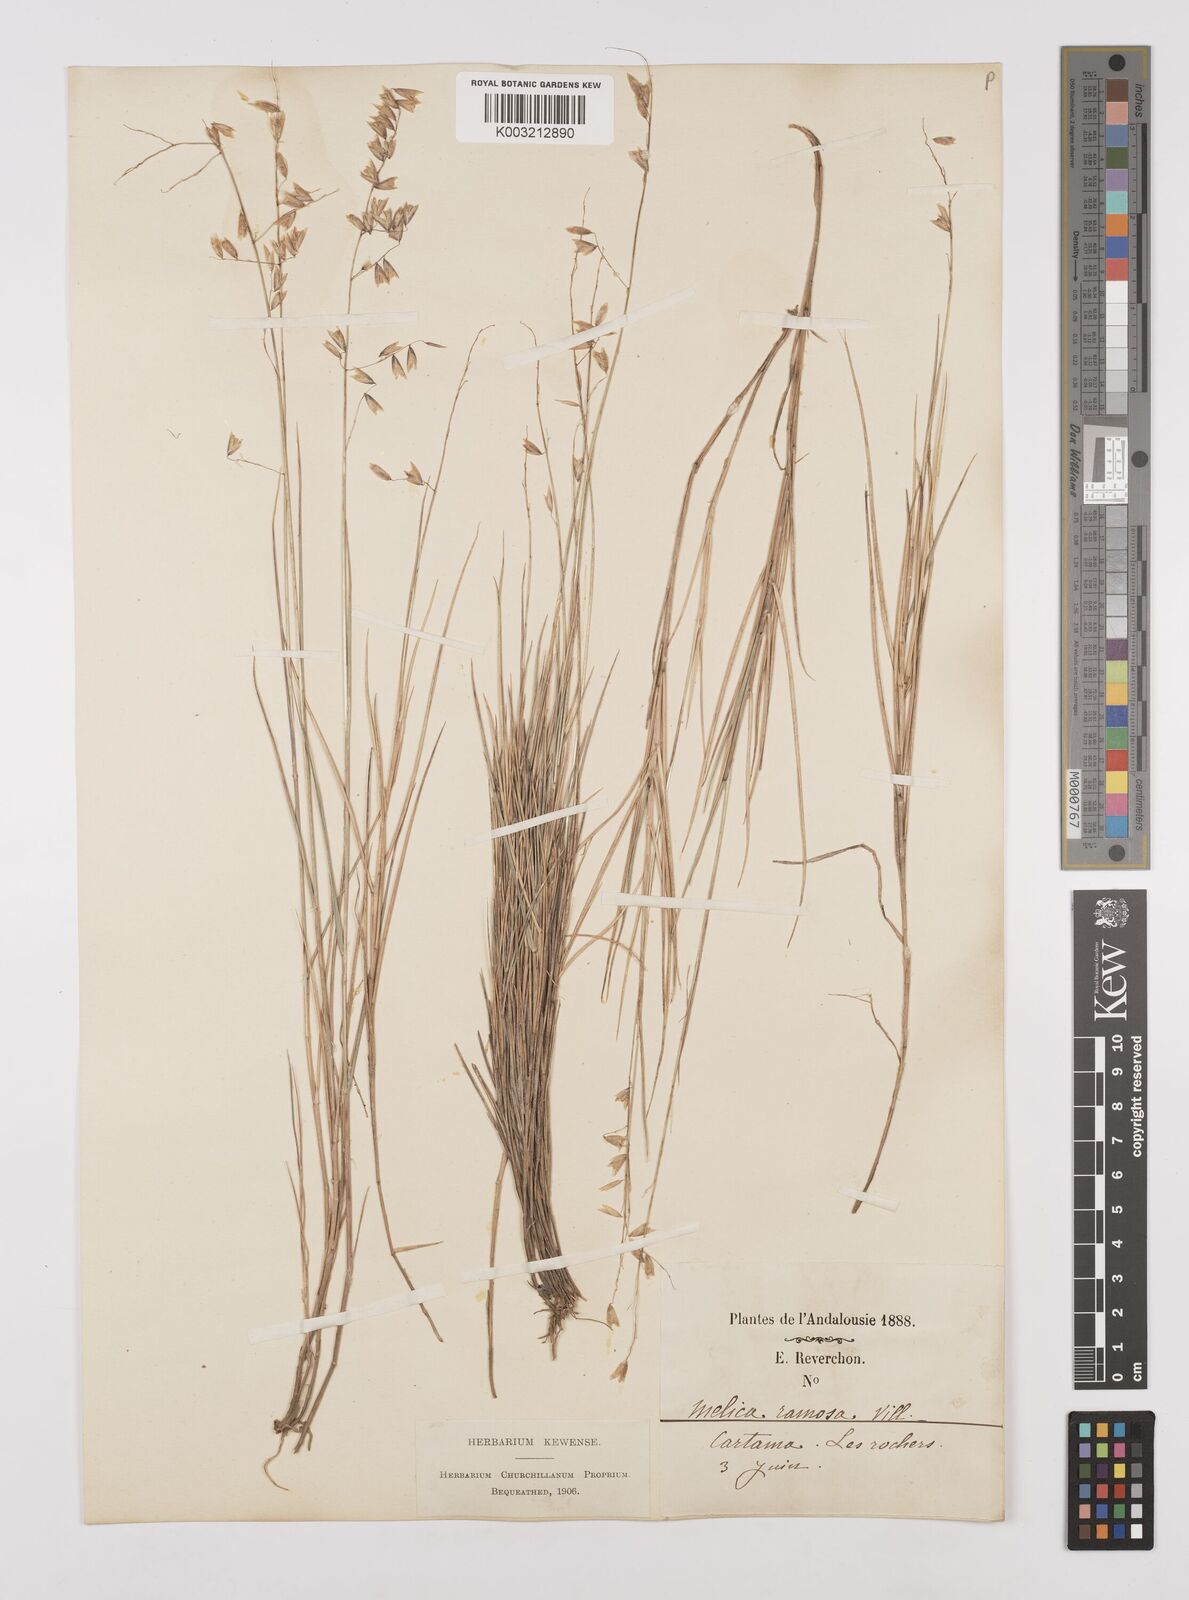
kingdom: Plantae
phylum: Tracheophyta
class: Liliopsida
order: Poales
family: Poaceae
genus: Melica
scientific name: Melica minuta
